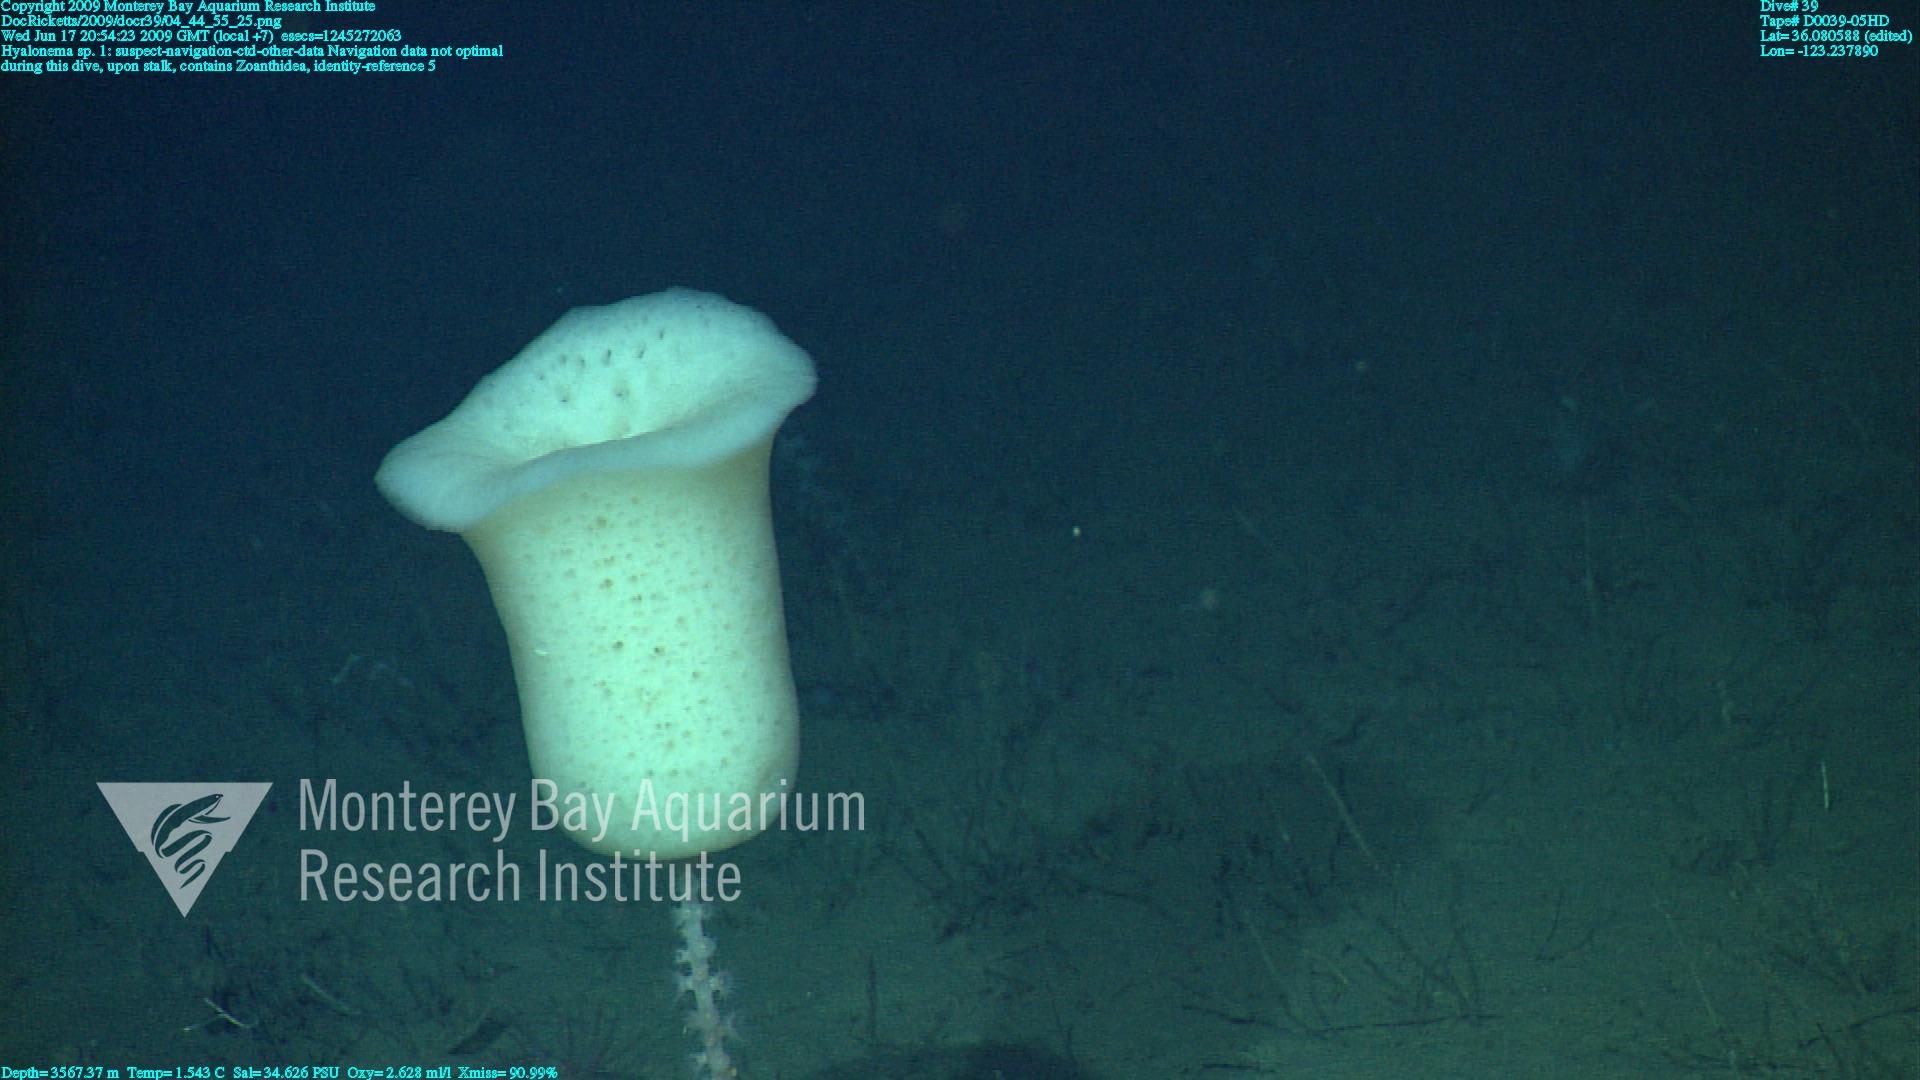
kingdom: Animalia
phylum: Porifera
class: Hexactinellida
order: Amphidiscosida
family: Hyalonematidae
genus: Hyalonema
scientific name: Hyalonema
